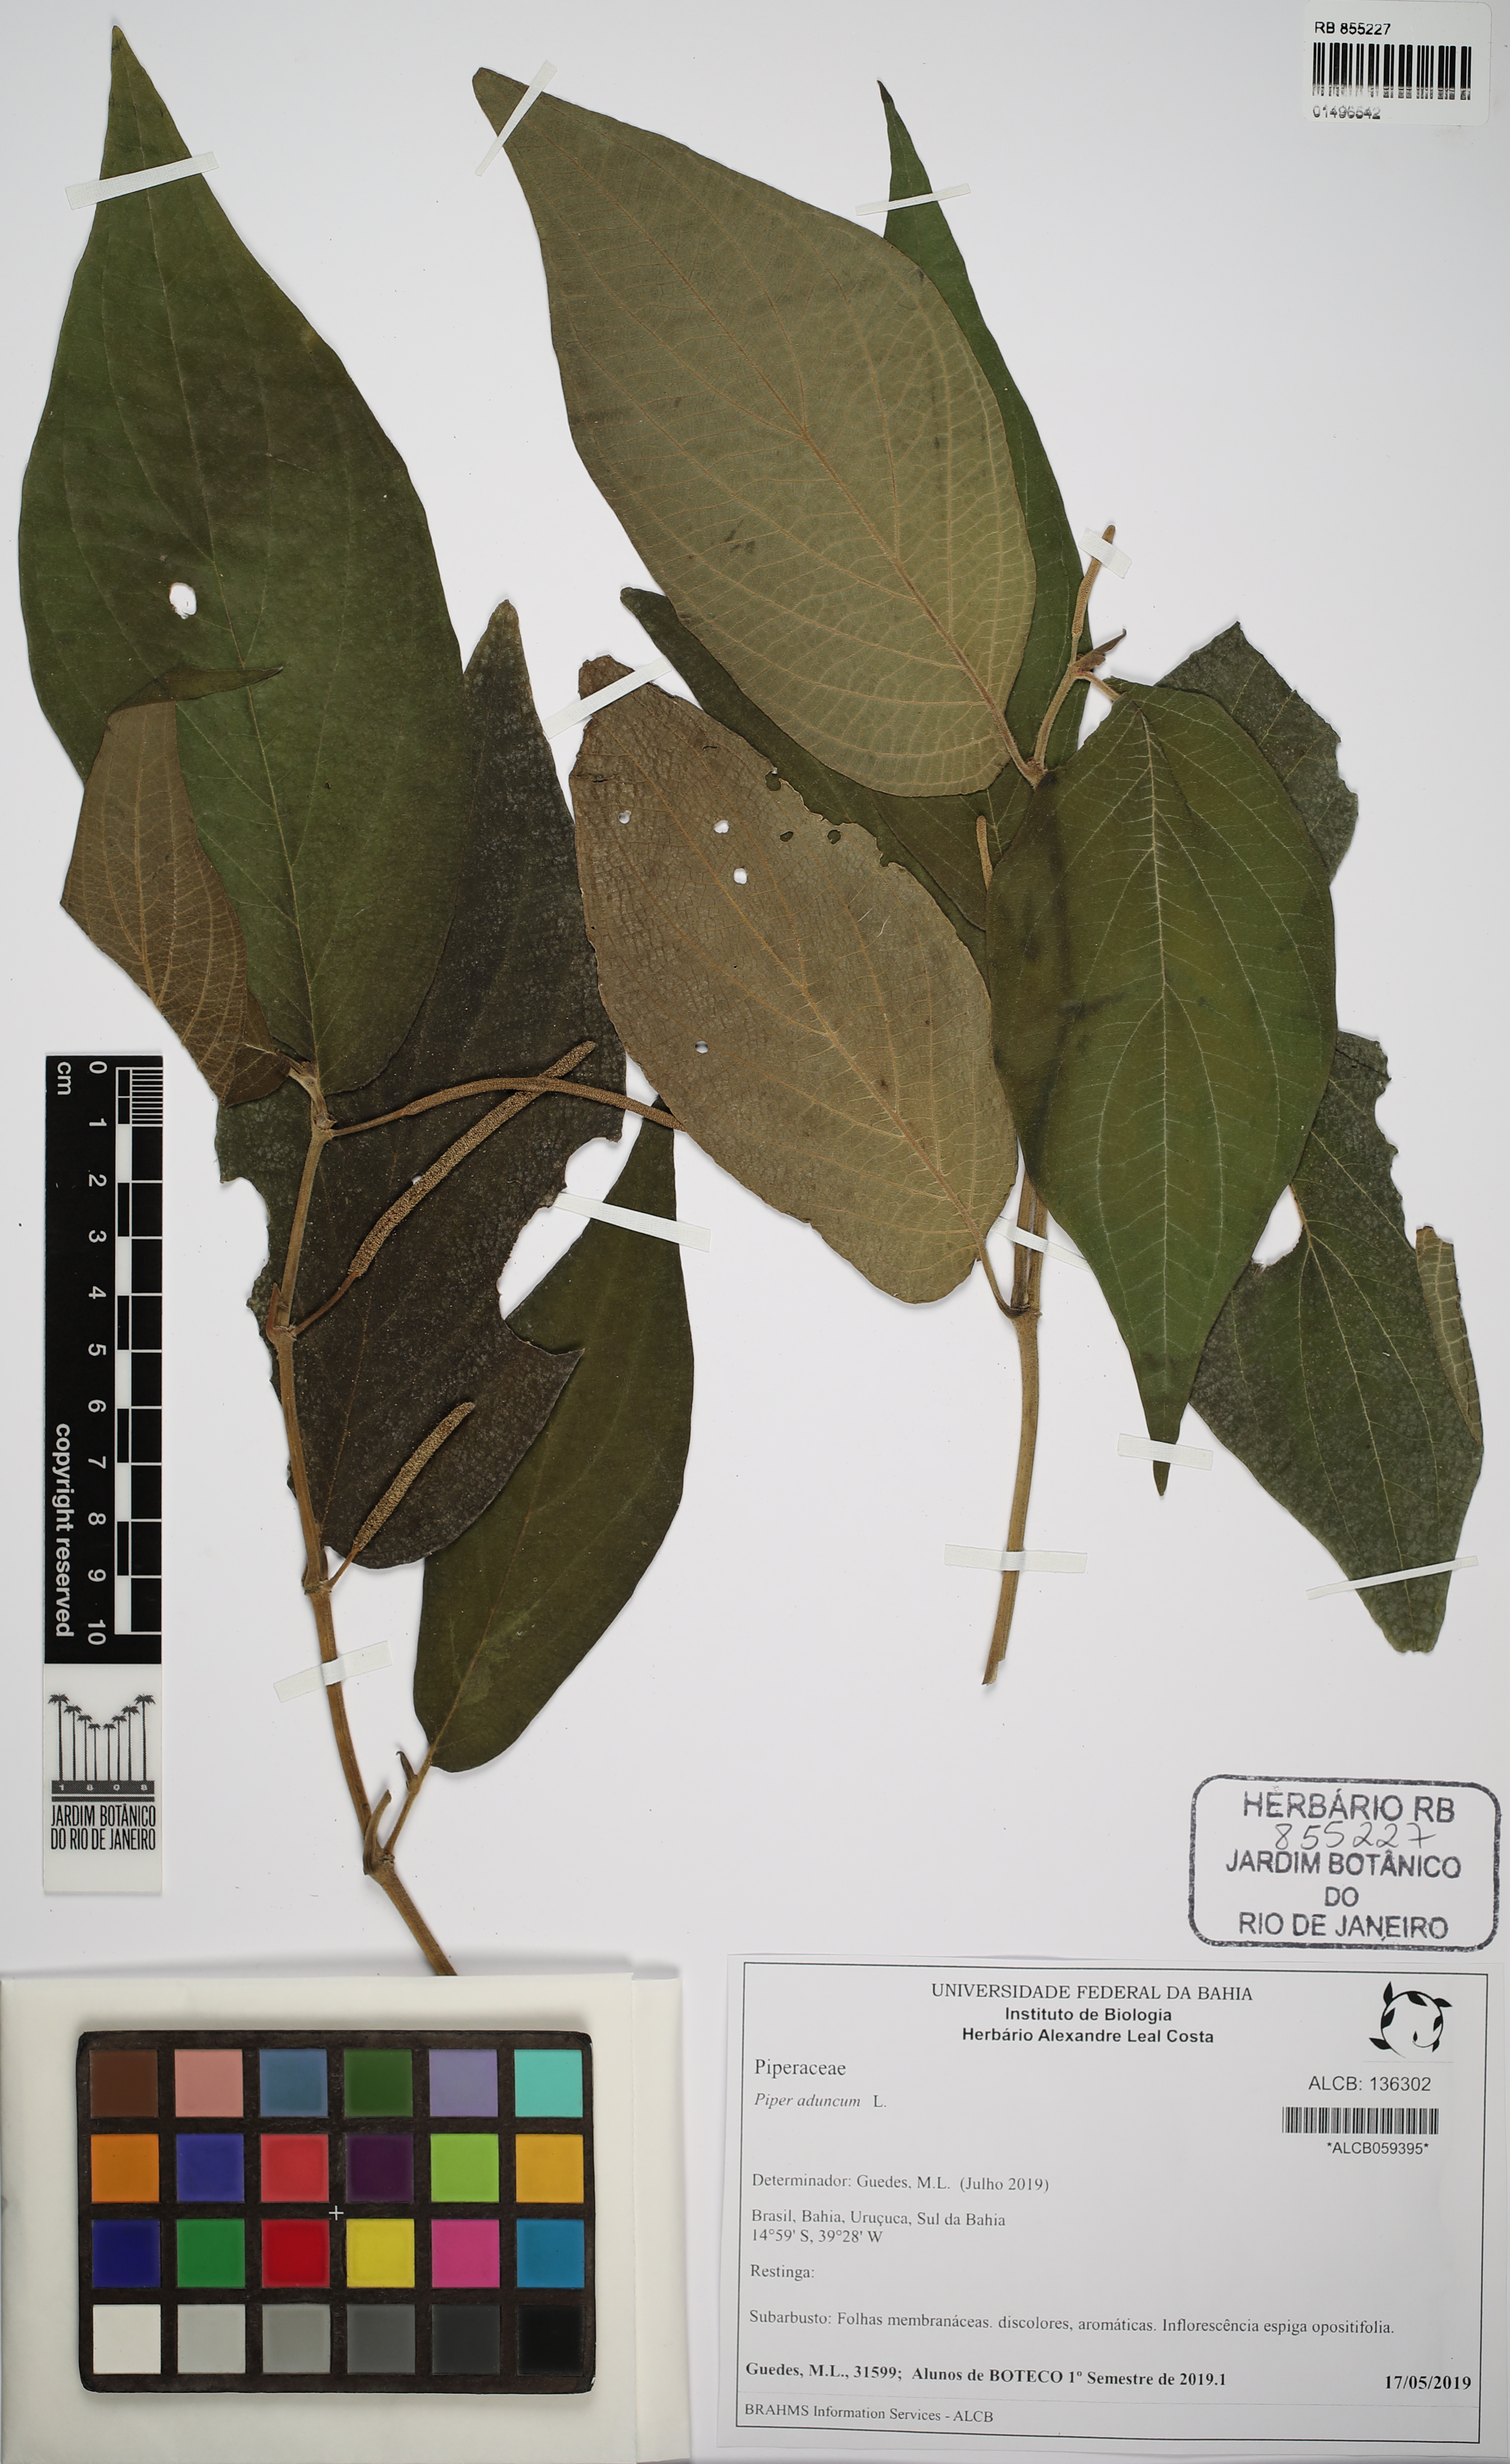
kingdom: Plantae
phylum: Tracheophyta
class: Magnoliopsida
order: Piperales
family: Piperaceae
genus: Piper
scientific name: Piper aduncum
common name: Spiked pepper
